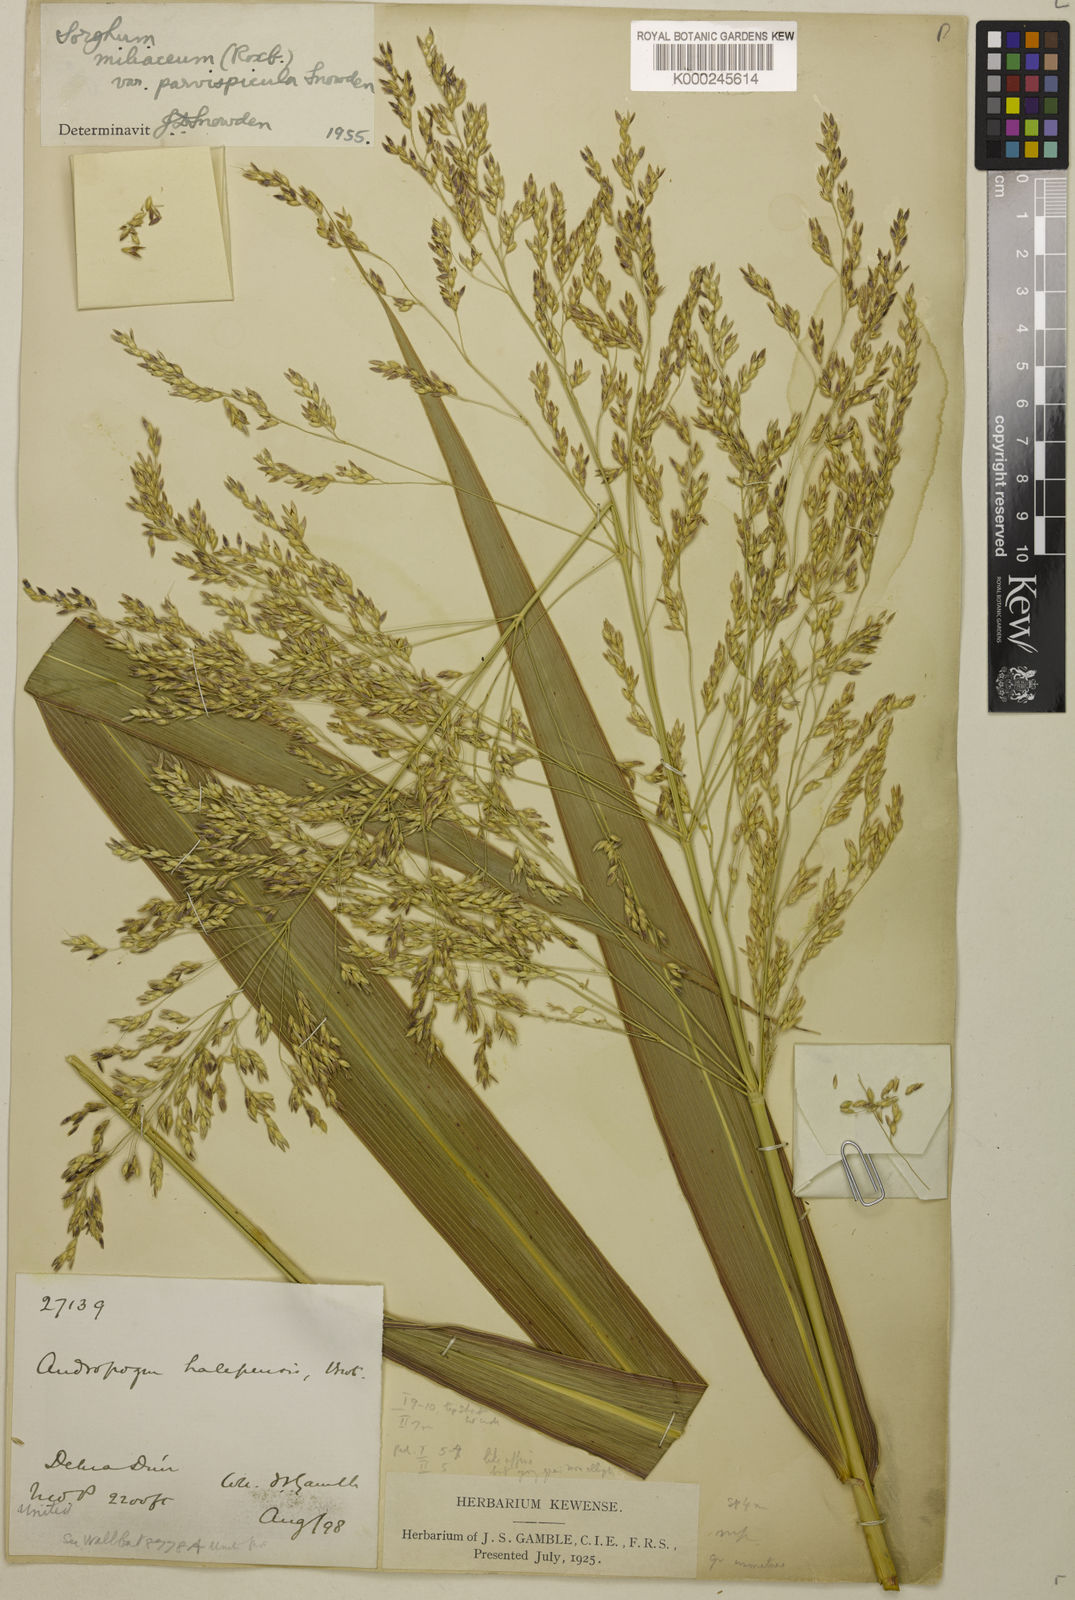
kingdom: Plantae
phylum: Tracheophyta
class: Liliopsida
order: Poales
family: Poaceae
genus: Sorghum
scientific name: Sorghum halepense
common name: Johnson-grass
